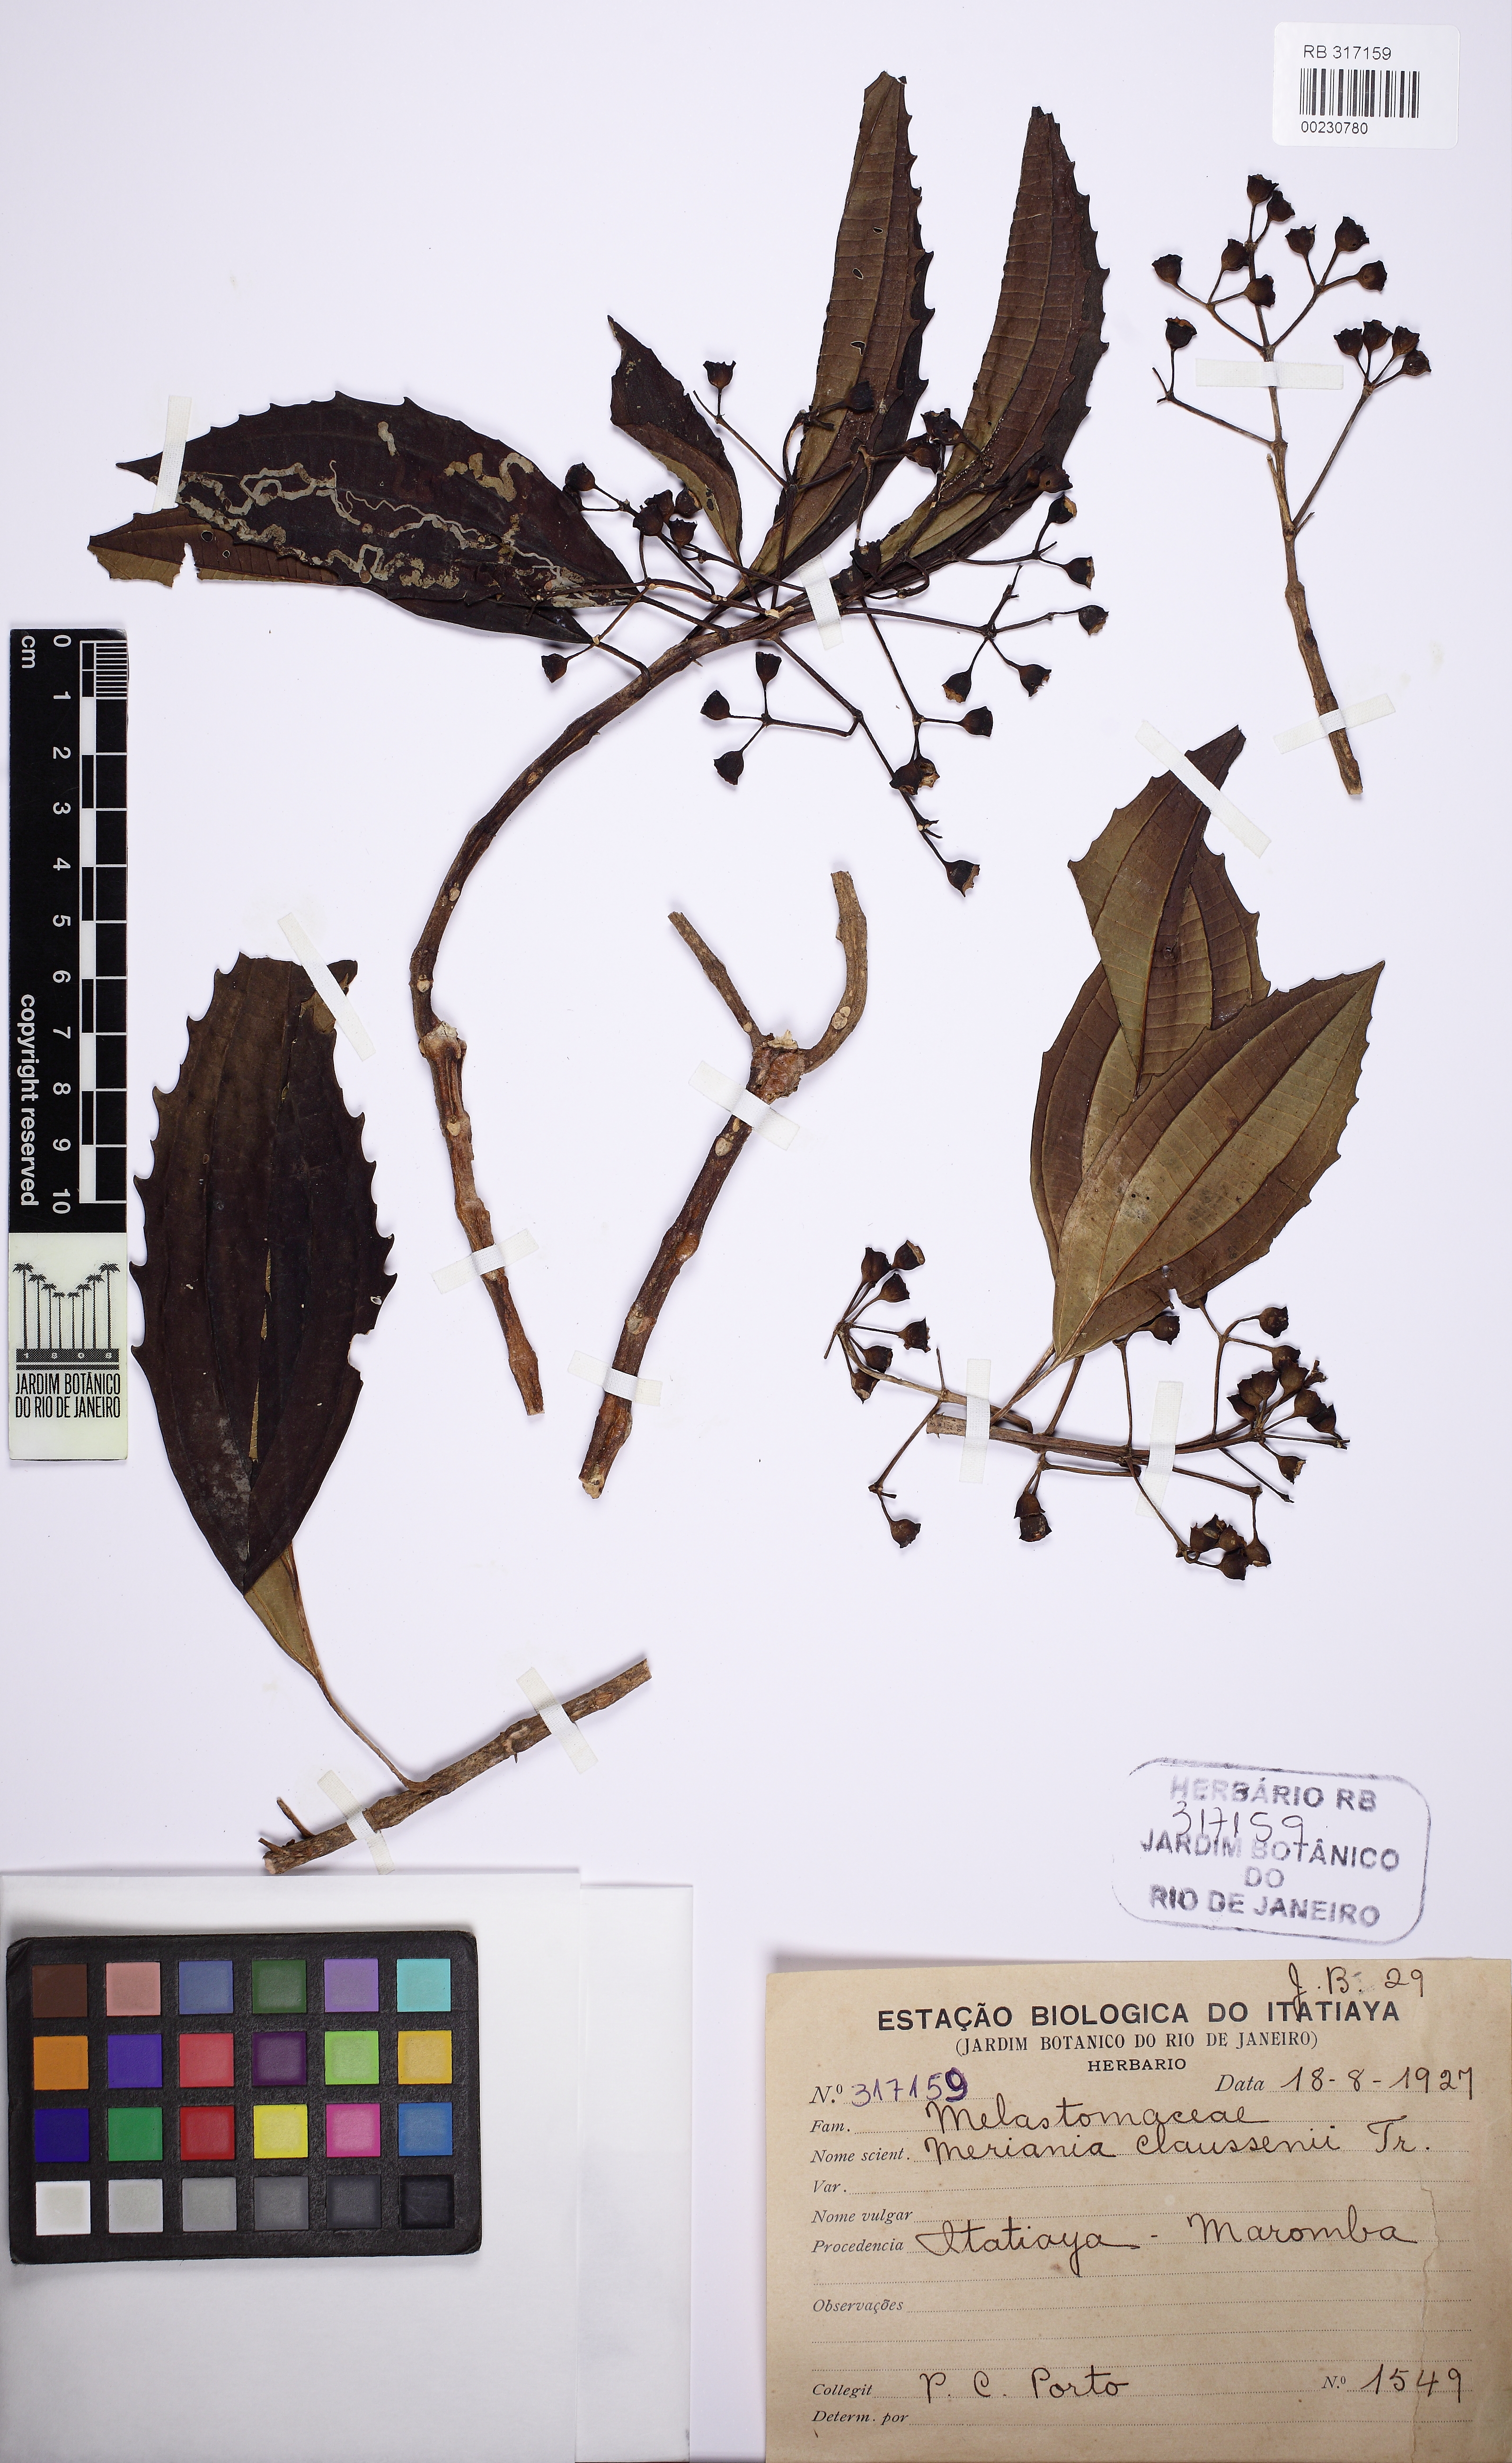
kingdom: Plantae
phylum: Tracheophyta
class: Magnoliopsida
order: Myrtales
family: Melastomataceae
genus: Meriania
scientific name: Meriania claussenii
